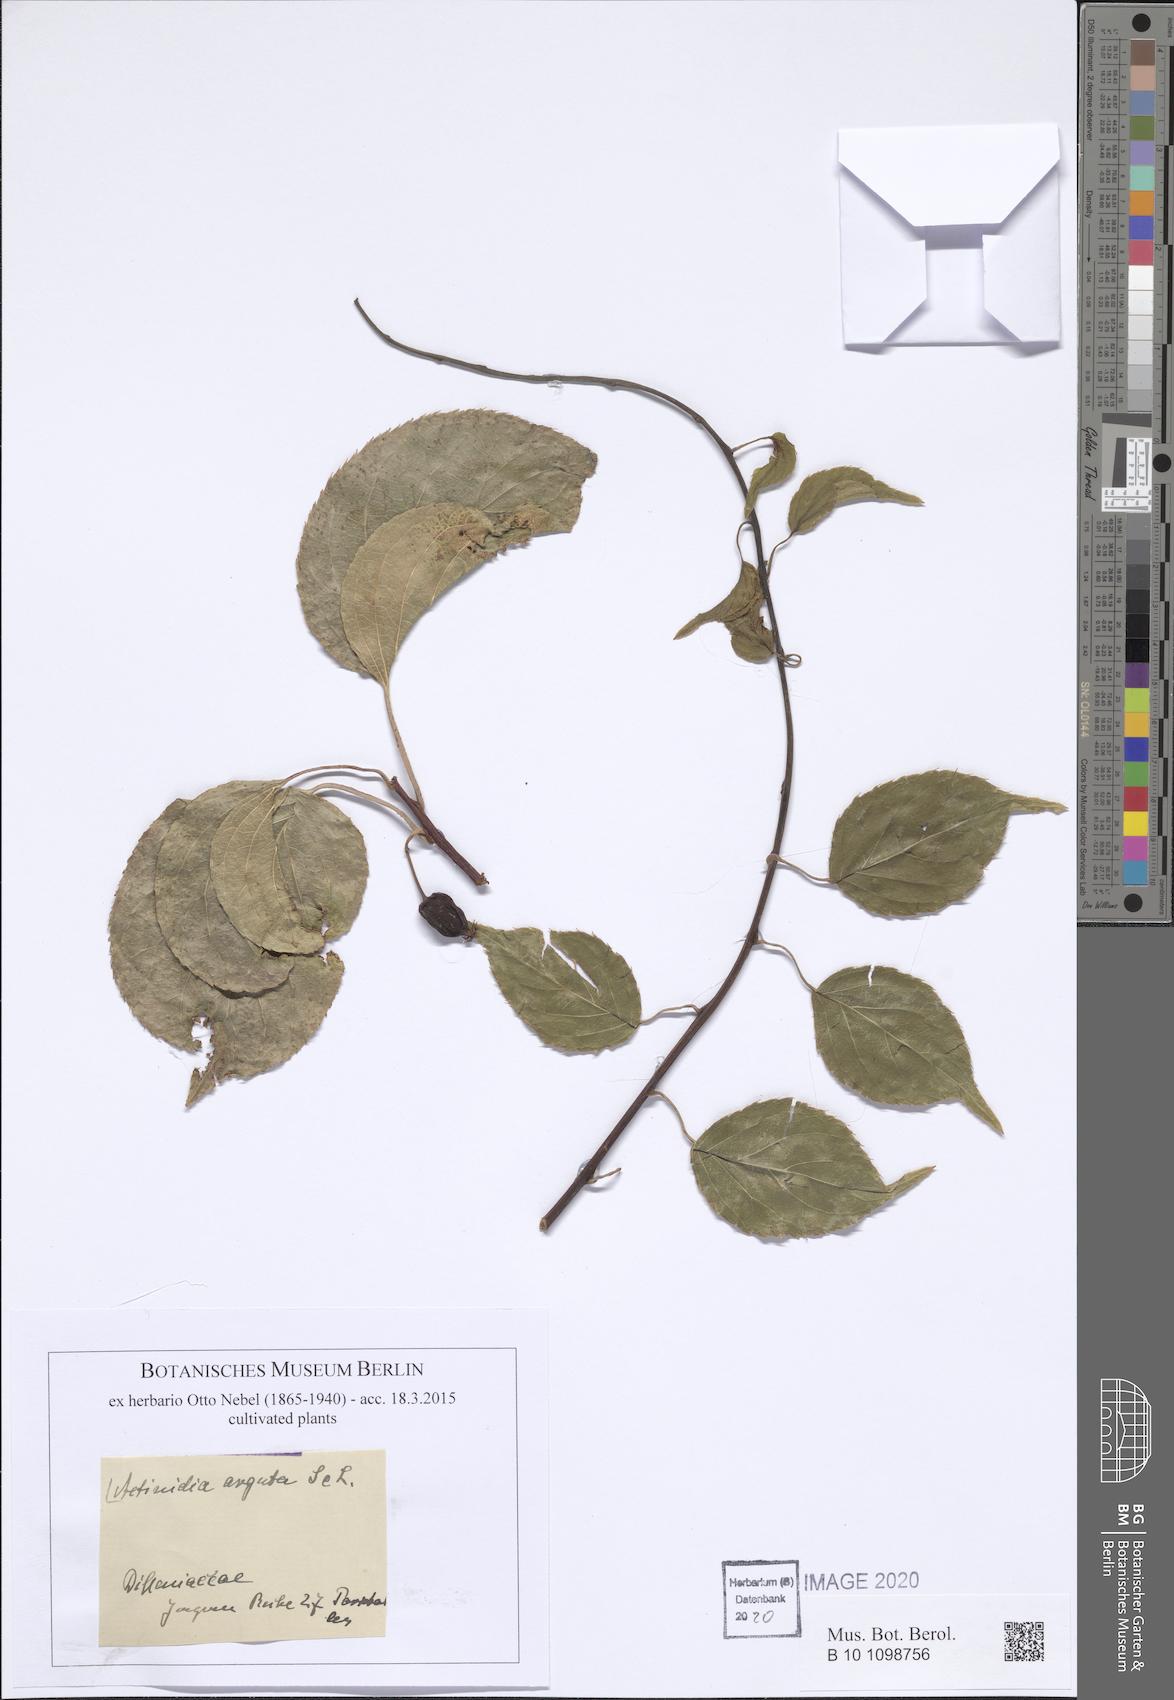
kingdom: Plantae
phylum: Tracheophyta
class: Magnoliopsida
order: Ericales
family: Actinidiaceae
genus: Actinidia
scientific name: Actinidia arguta
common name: Tara vine
